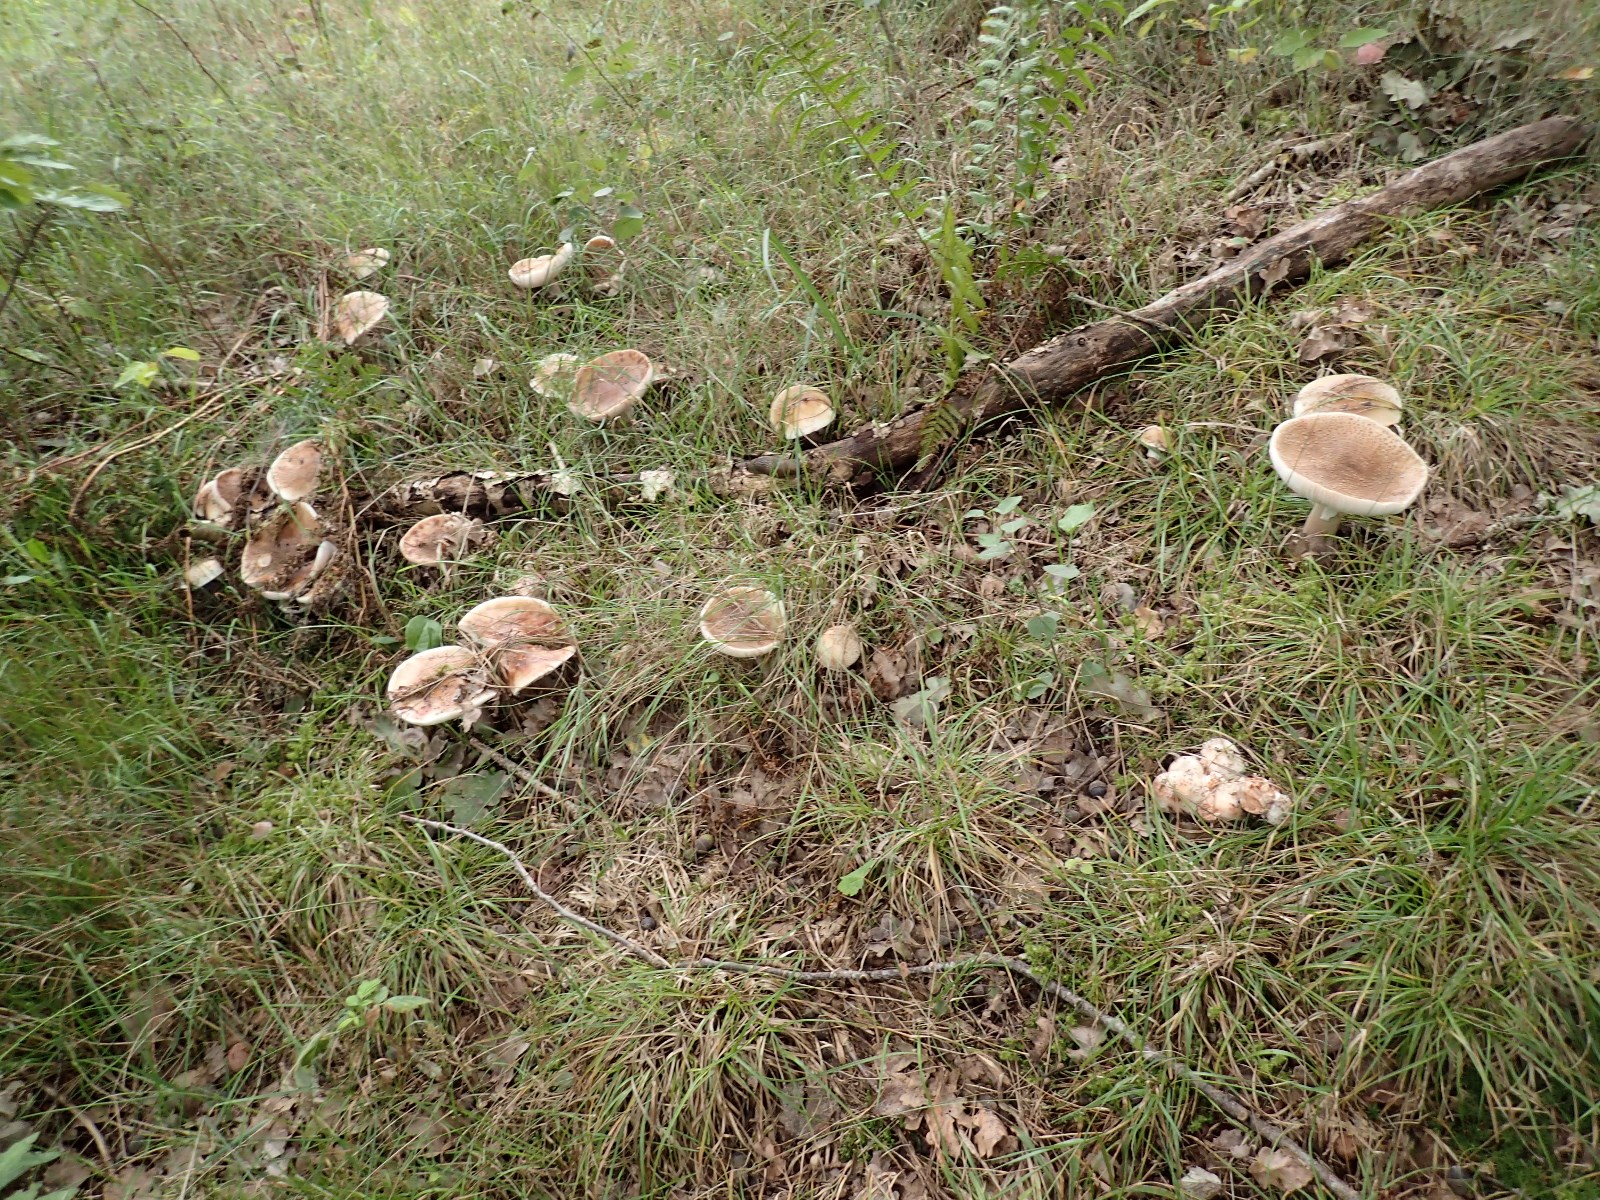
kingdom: Fungi
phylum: Basidiomycota
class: Agaricomycetes
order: Agaricales
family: Amanitaceae
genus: Amanita
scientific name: Amanita rubescens
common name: rødmende fluesvamp
